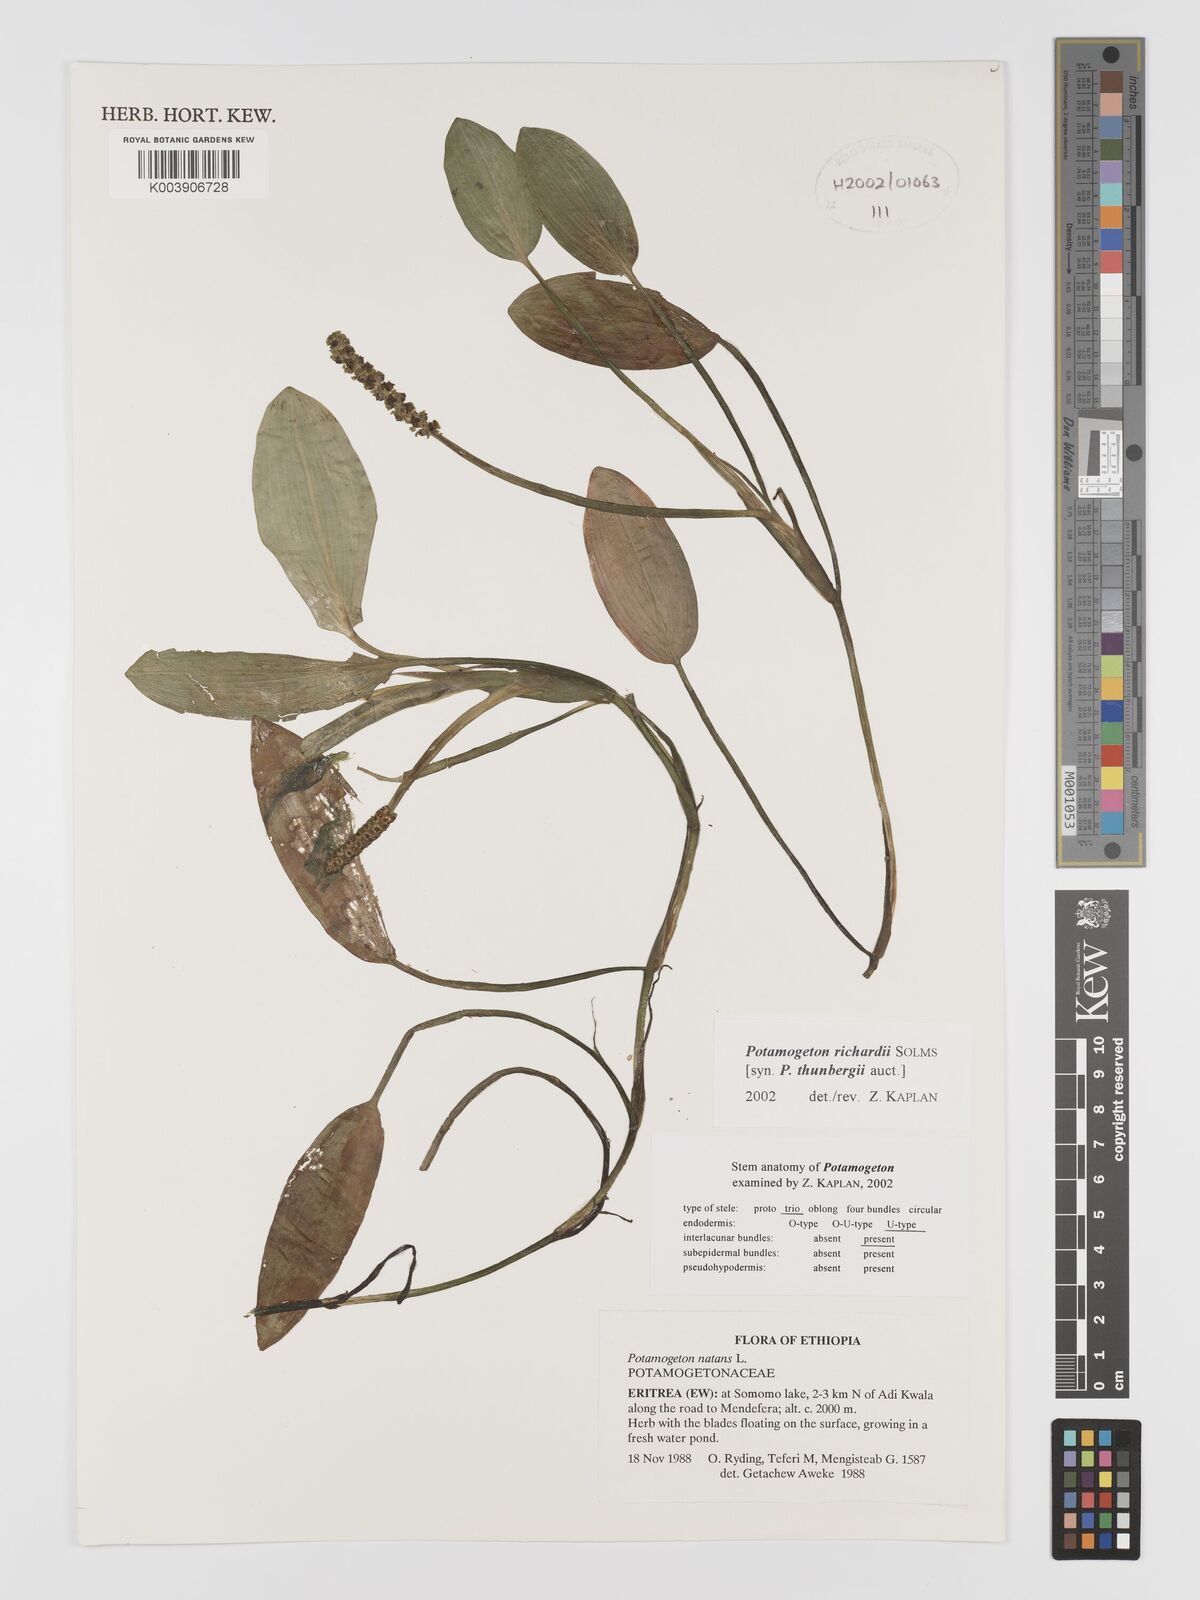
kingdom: Plantae
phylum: Tracheophyta
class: Liliopsida
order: Alismatales
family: Potamogetonaceae
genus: Potamogeton
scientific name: Potamogeton richardii
